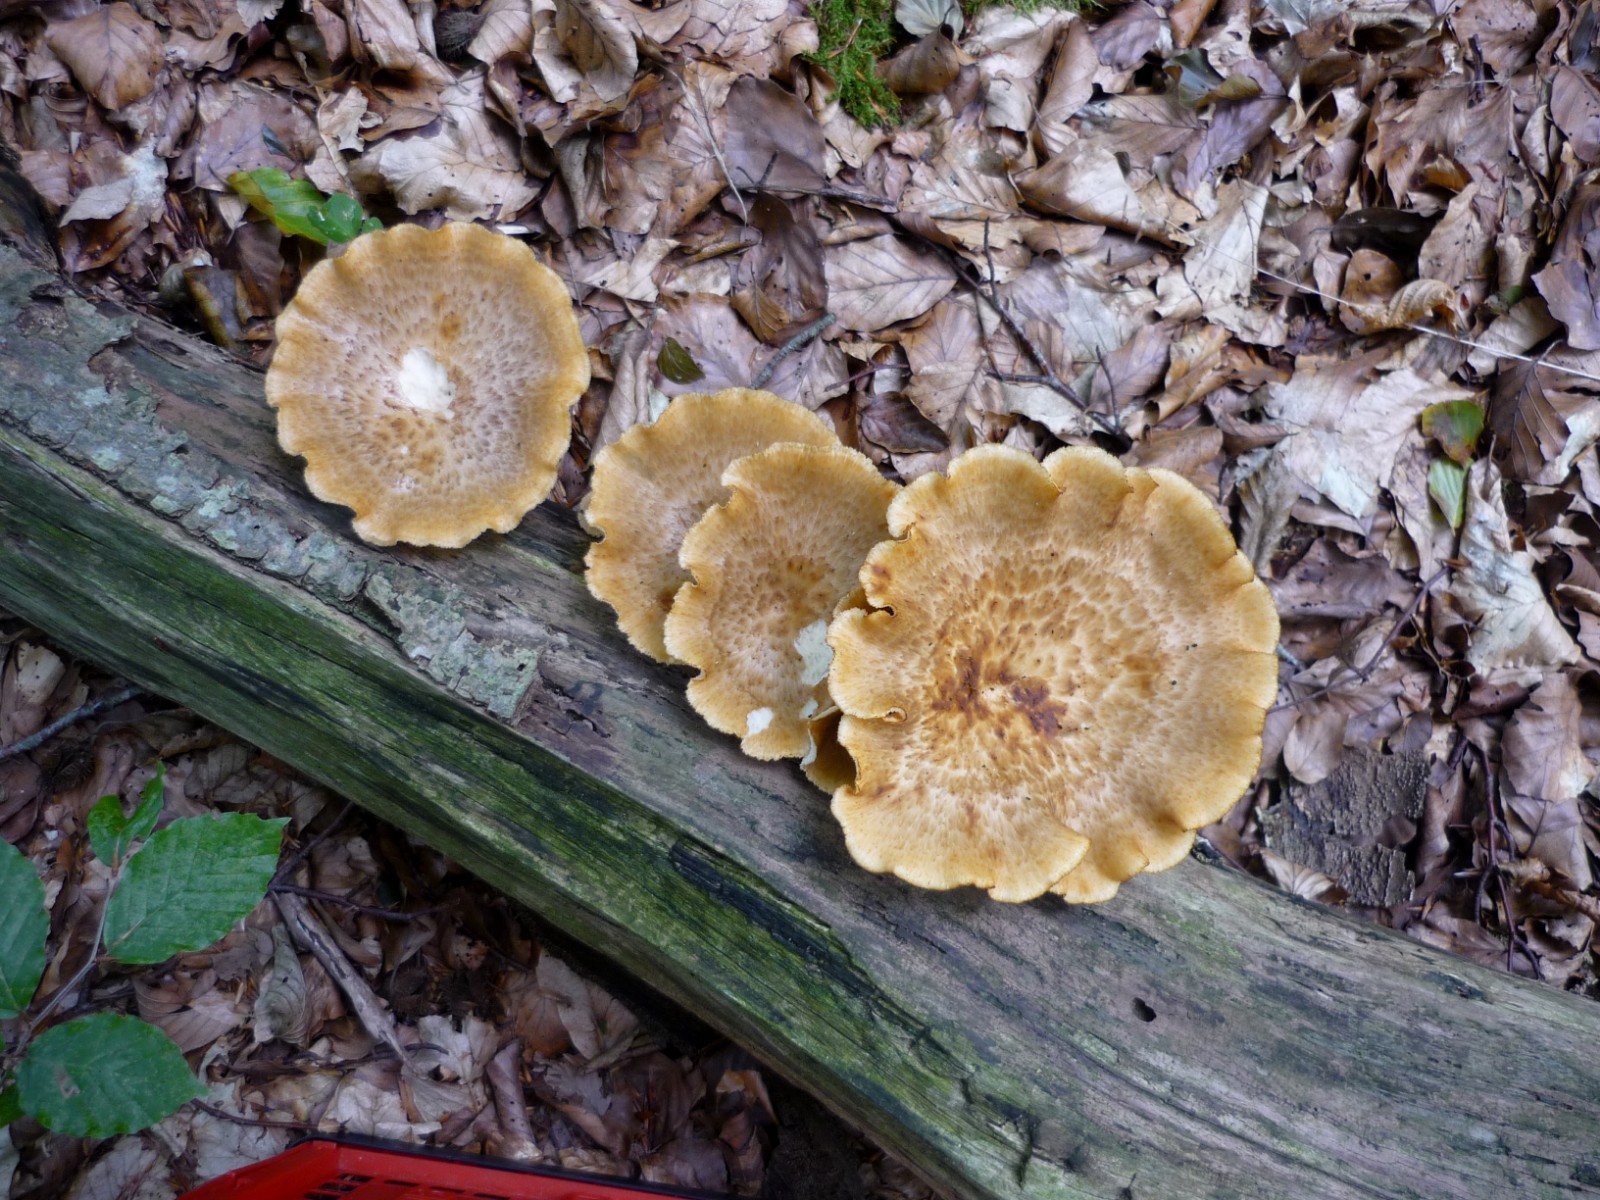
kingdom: Fungi
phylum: Basidiomycota
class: Agaricomycetes
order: Polyporales
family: Polyporaceae
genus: Polyporus
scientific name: Polyporus tuberaster
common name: knoldet stilkporesvamp
